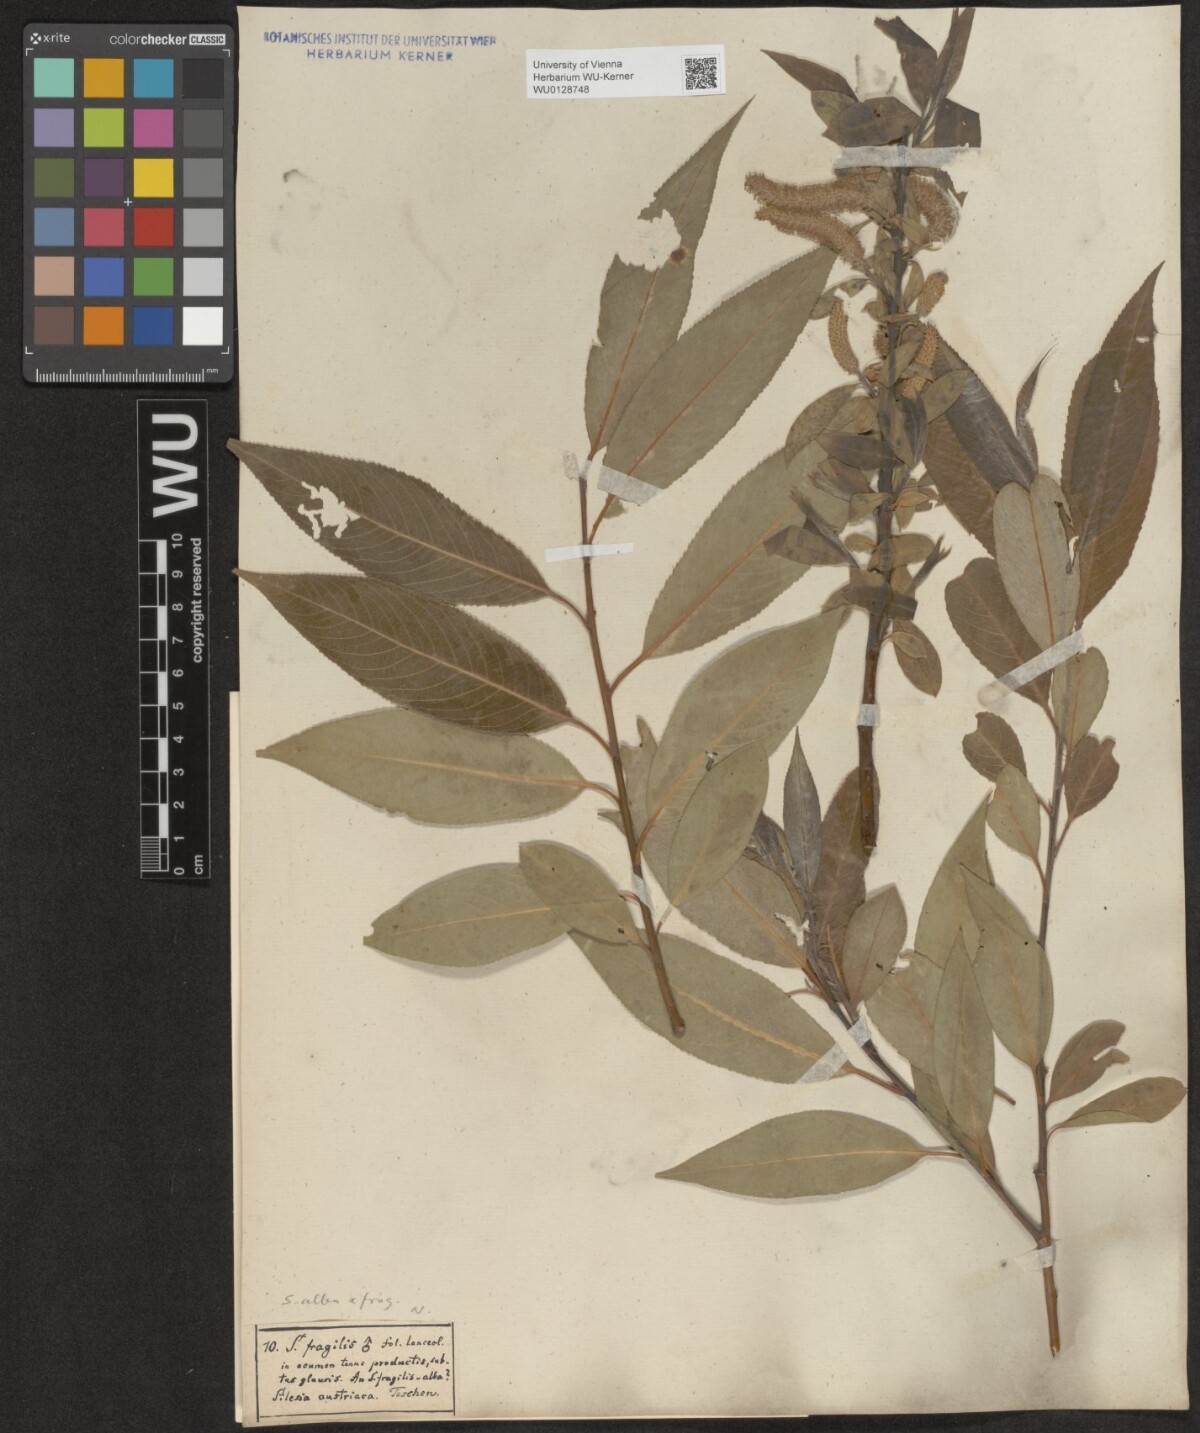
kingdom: Plantae
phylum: Tracheophyta
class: Magnoliopsida
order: Malpighiales
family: Salicaceae
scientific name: Salicaceae
